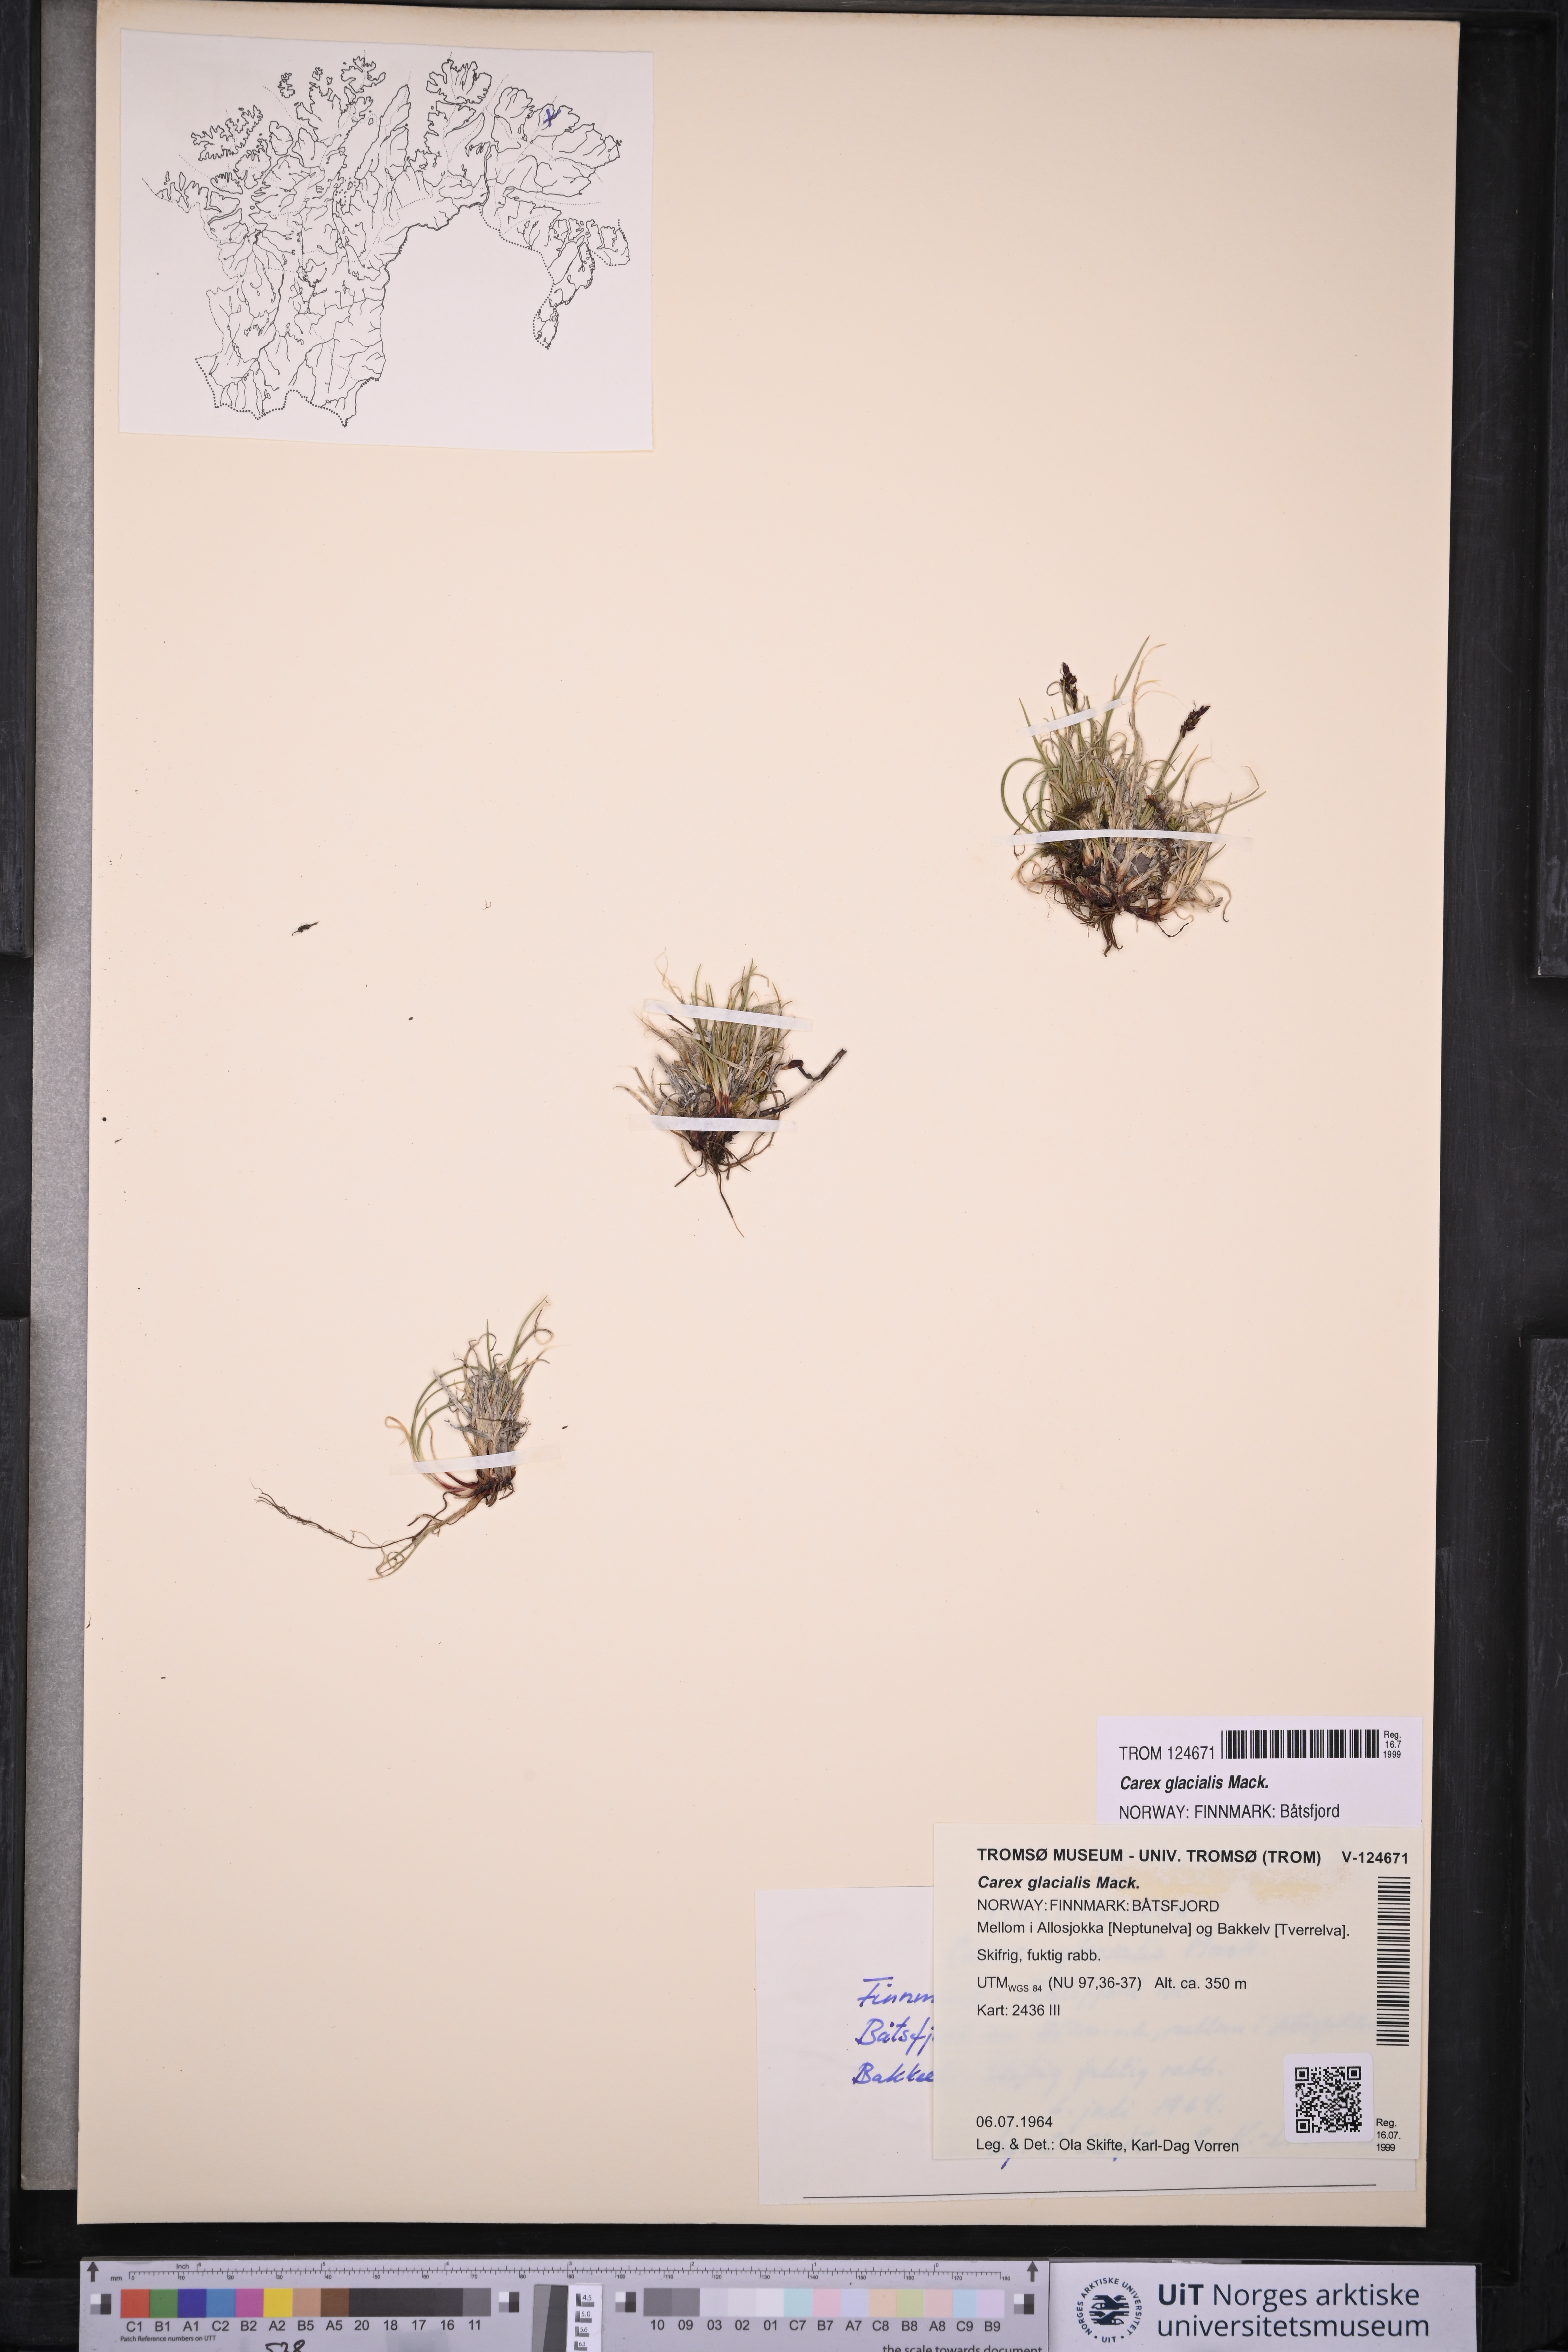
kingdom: Plantae
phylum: Tracheophyta
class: Liliopsida
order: Poales
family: Cyperaceae
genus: Carex
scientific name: Carex glacialis
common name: Newfoundland sedge
